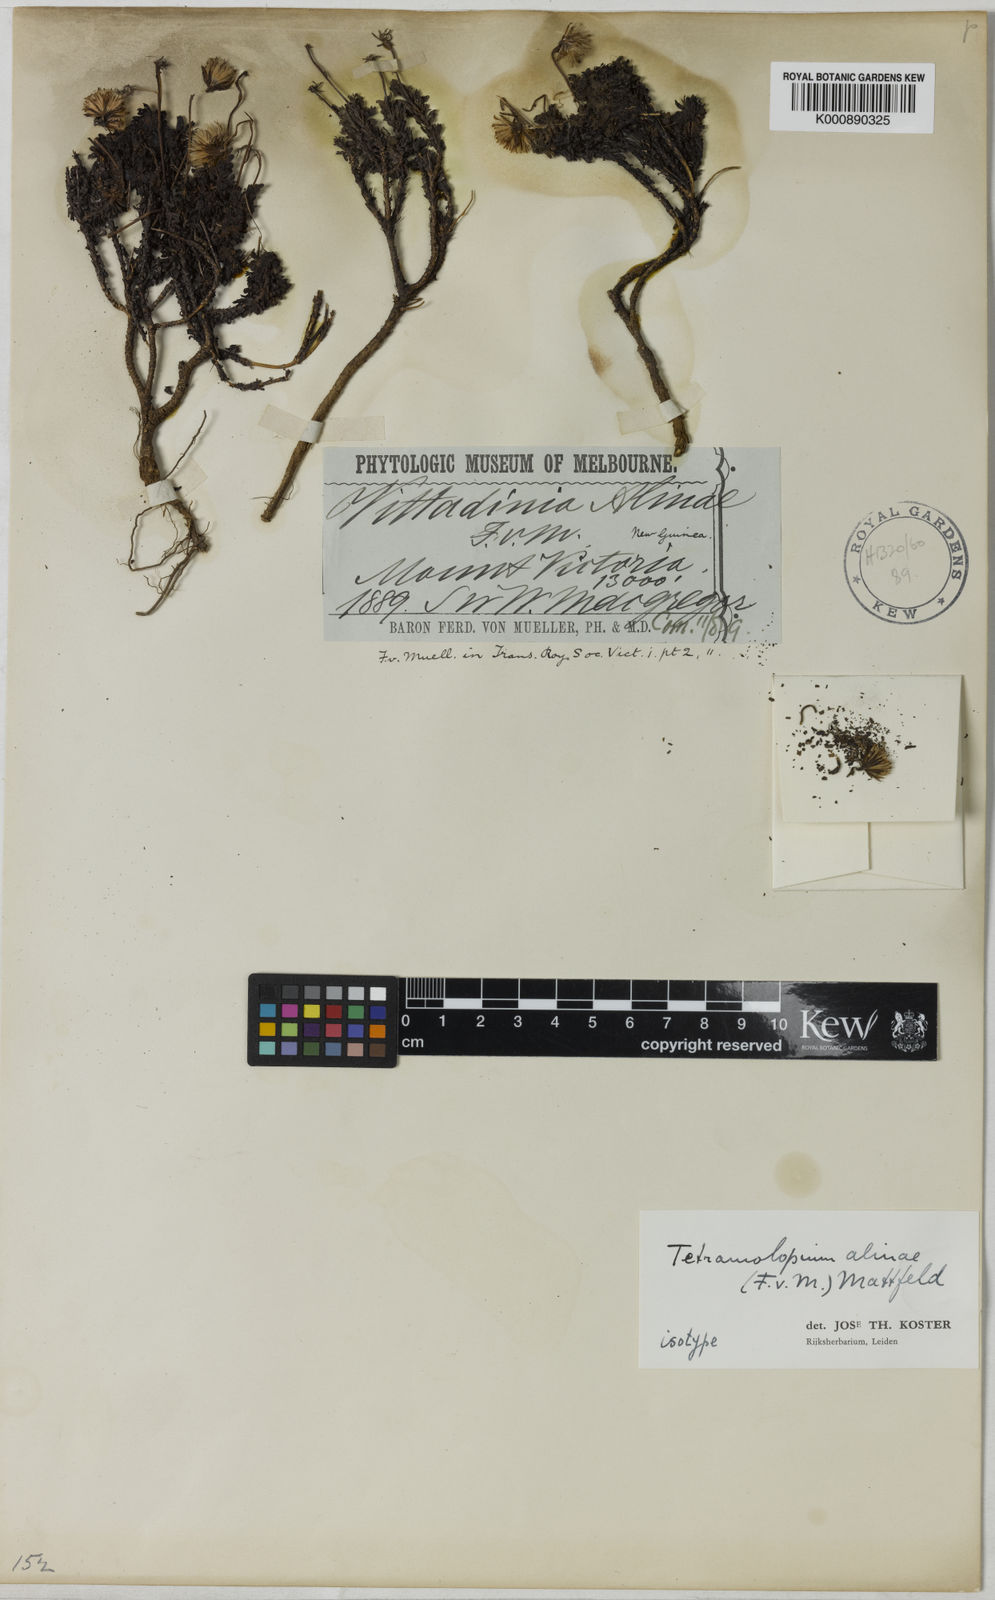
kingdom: Plantae
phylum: Tracheophyta
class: Magnoliopsida
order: Asterales
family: Asteraceae
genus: Tetramolopium
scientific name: Tetramolopium alinae
